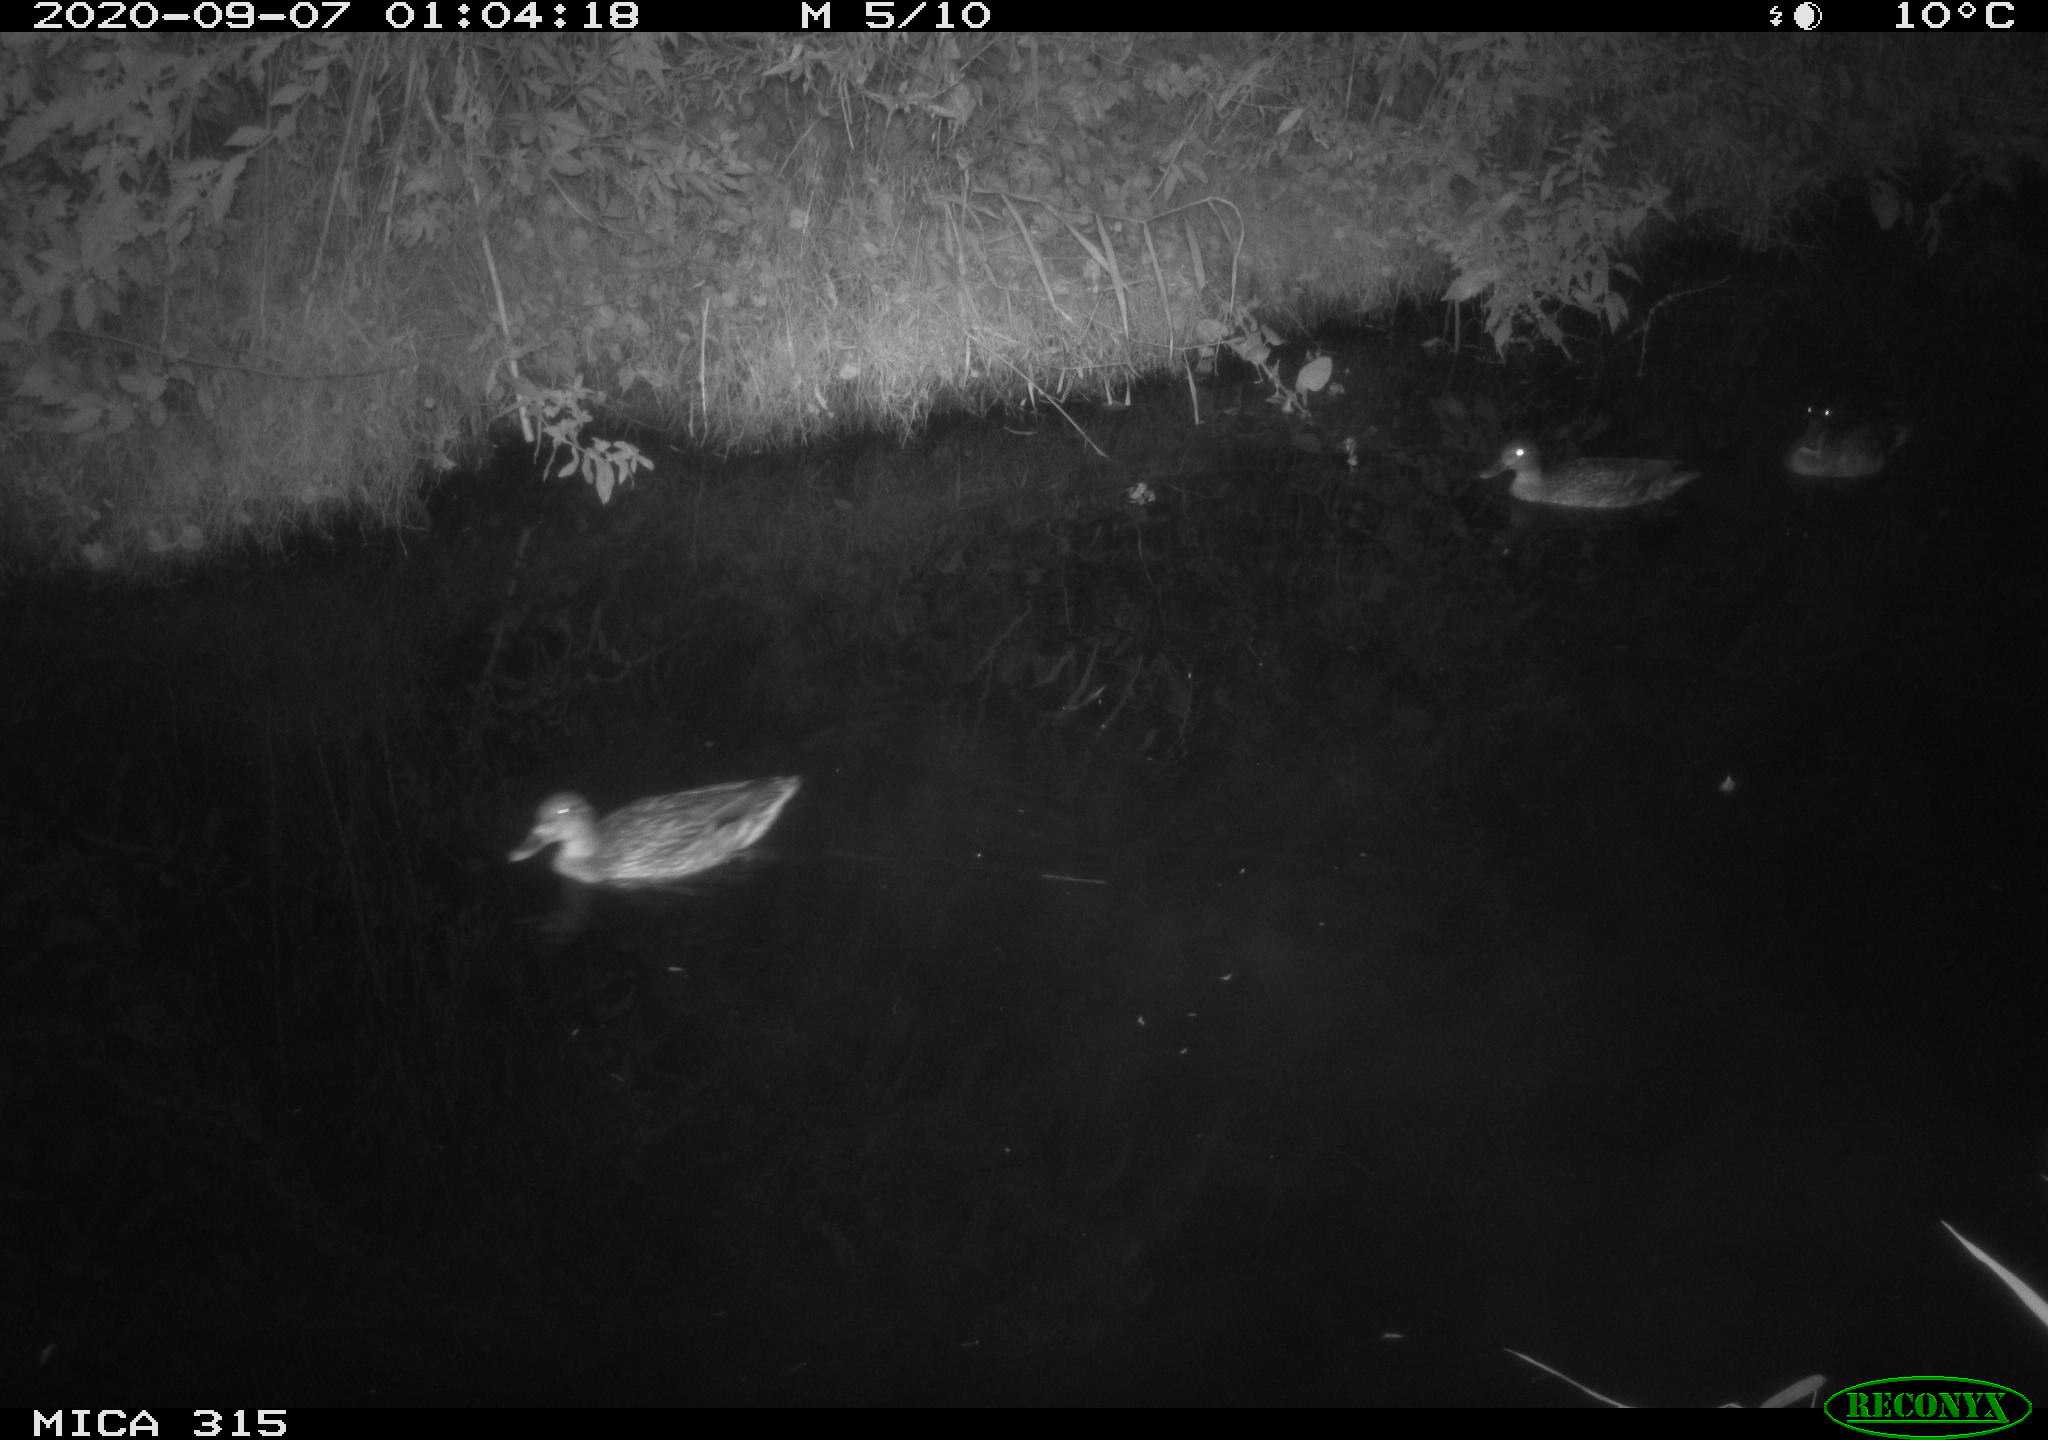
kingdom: Animalia
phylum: Chordata
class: Aves
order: Anseriformes
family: Anatidae
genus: Anas
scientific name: Anas platyrhynchos
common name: Mallard
